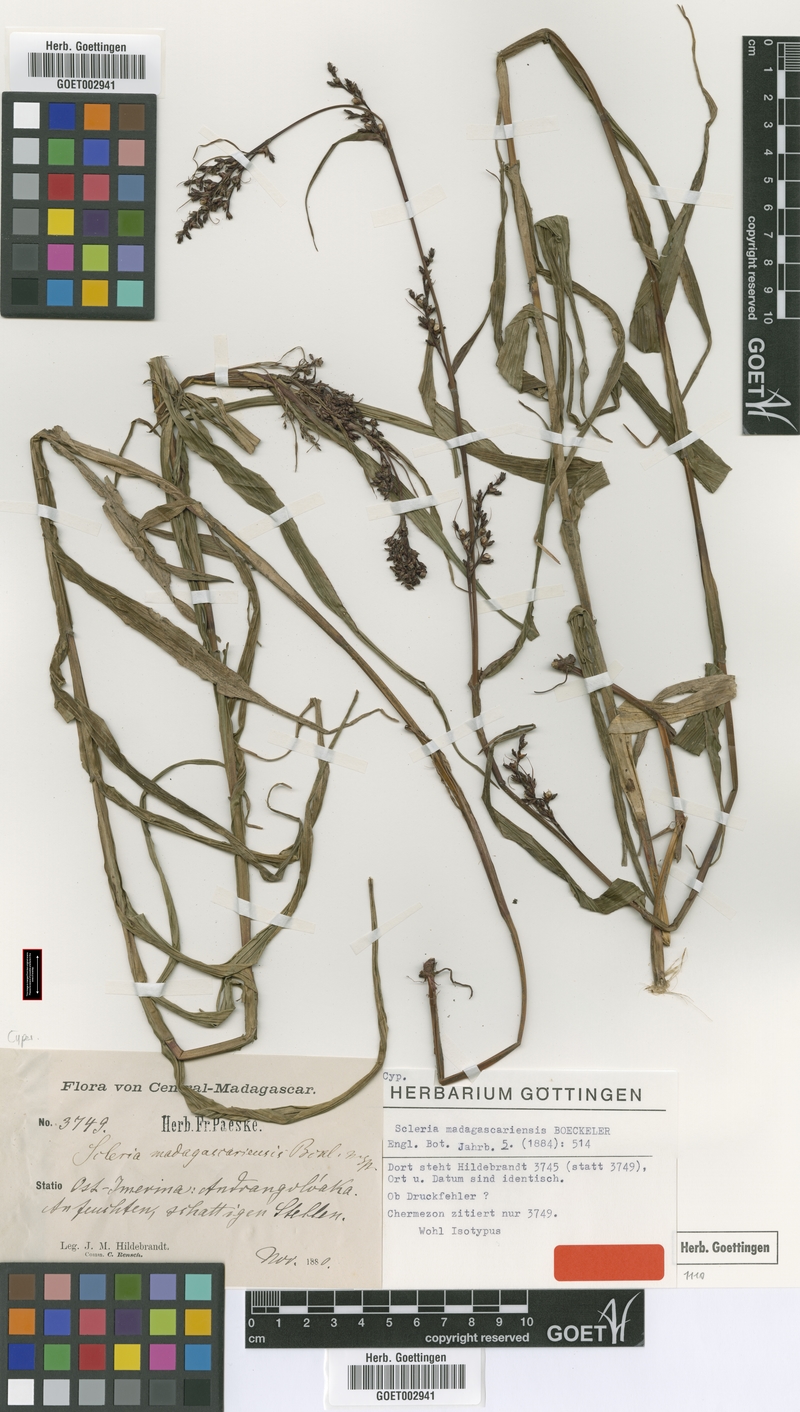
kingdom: Plantae
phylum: Tracheophyta
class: Liliopsida
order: Poales
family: Cyperaceae
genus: Scleria
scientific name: Scleria madagascariensis
